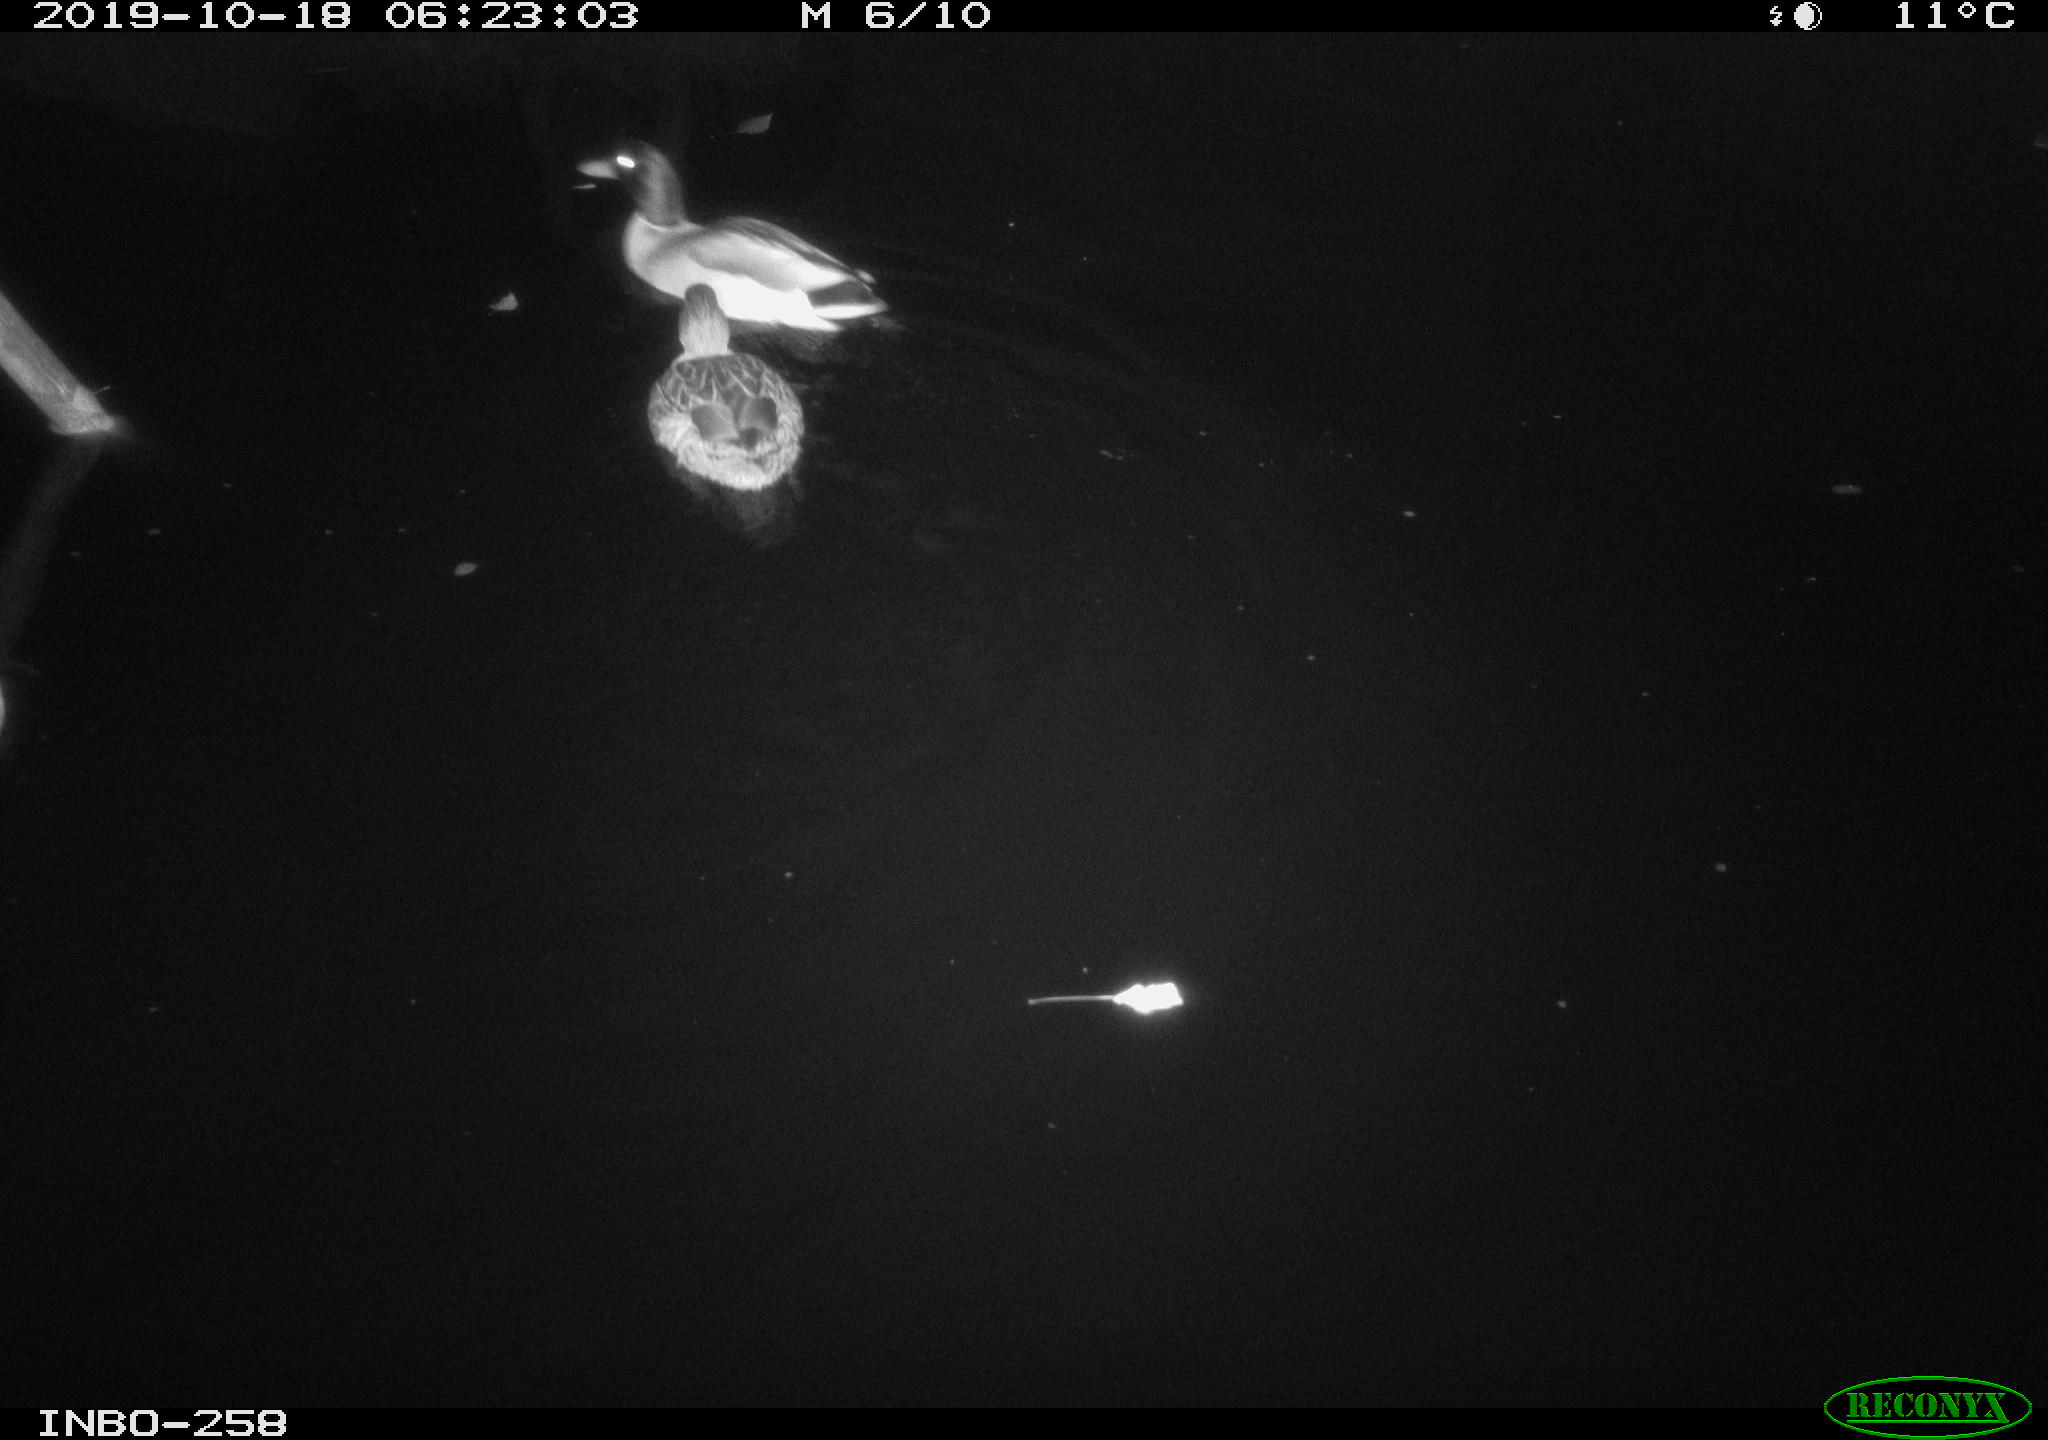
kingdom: Animalia
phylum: Chordata
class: Aves
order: Anseriformes
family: Anatidae
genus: Anas
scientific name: Anas platyrhynchos
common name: Mallard
